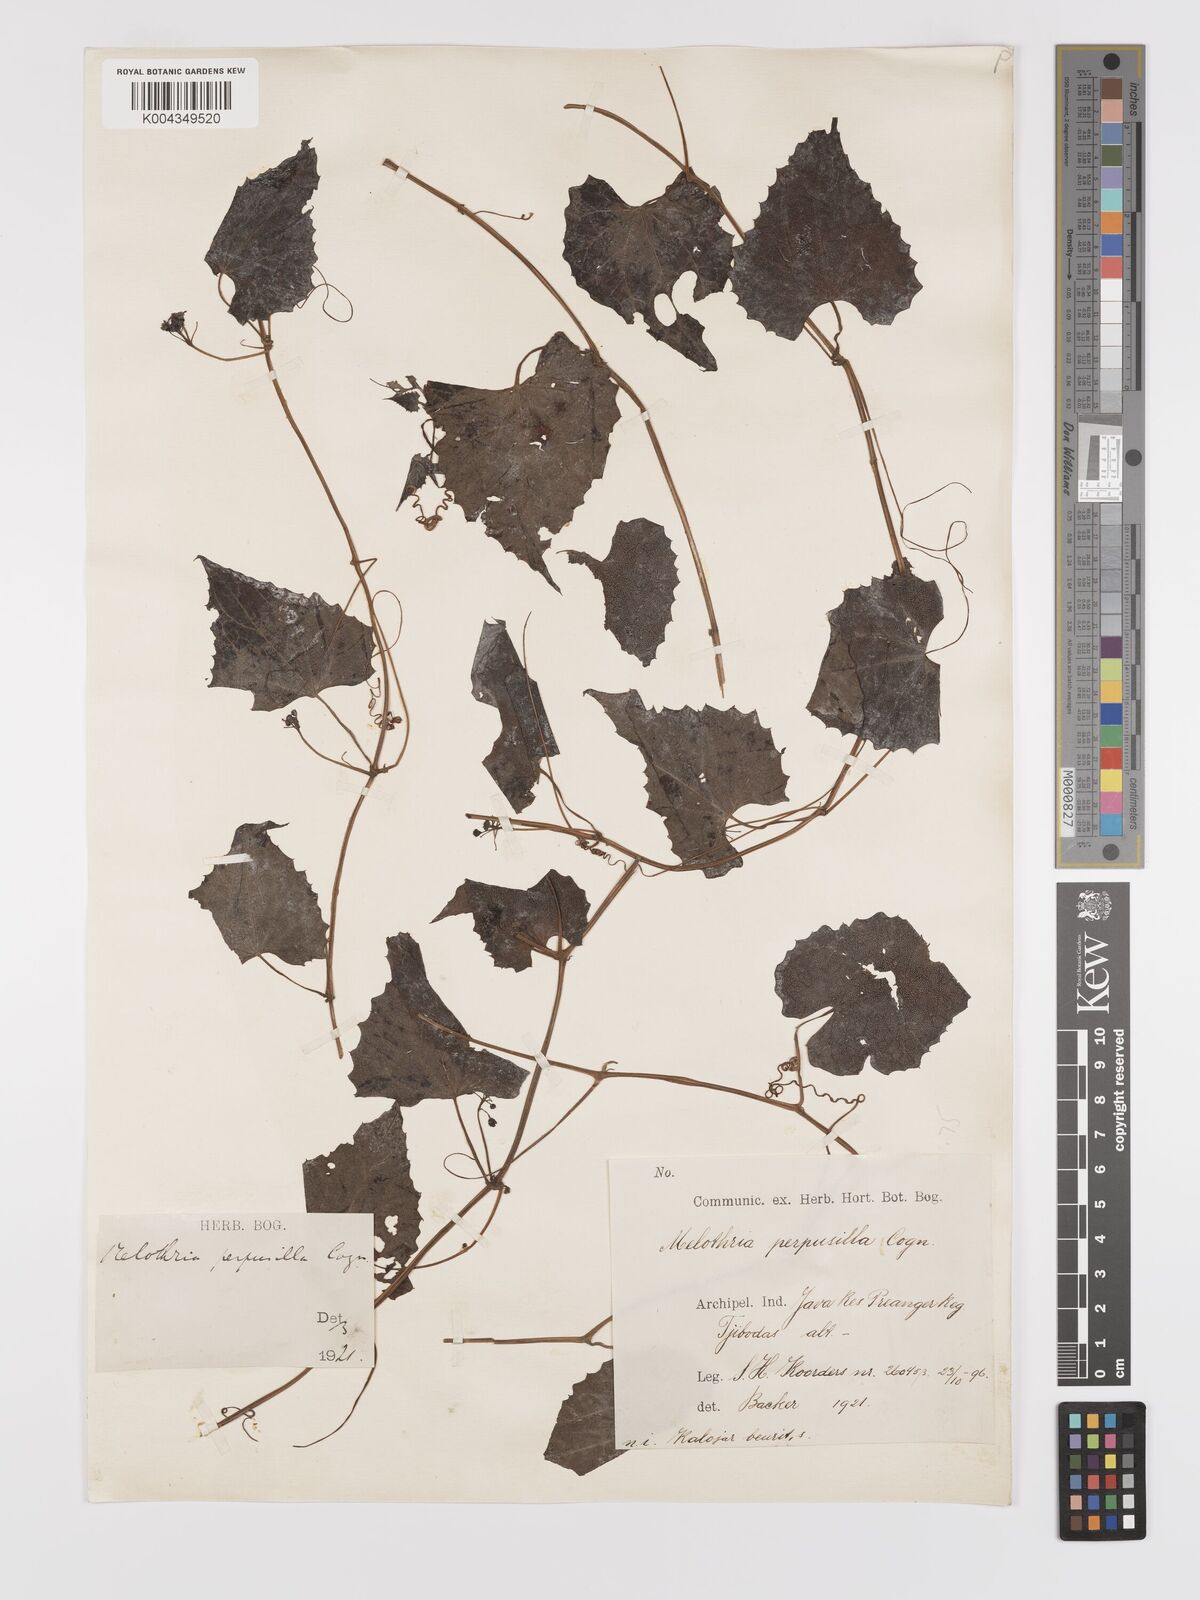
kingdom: Plantae
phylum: Tracheophyta
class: Magnoliopsida
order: Cucurbitales
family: Cucurbitaceae
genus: Zehneria
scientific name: Zehneria scabra
